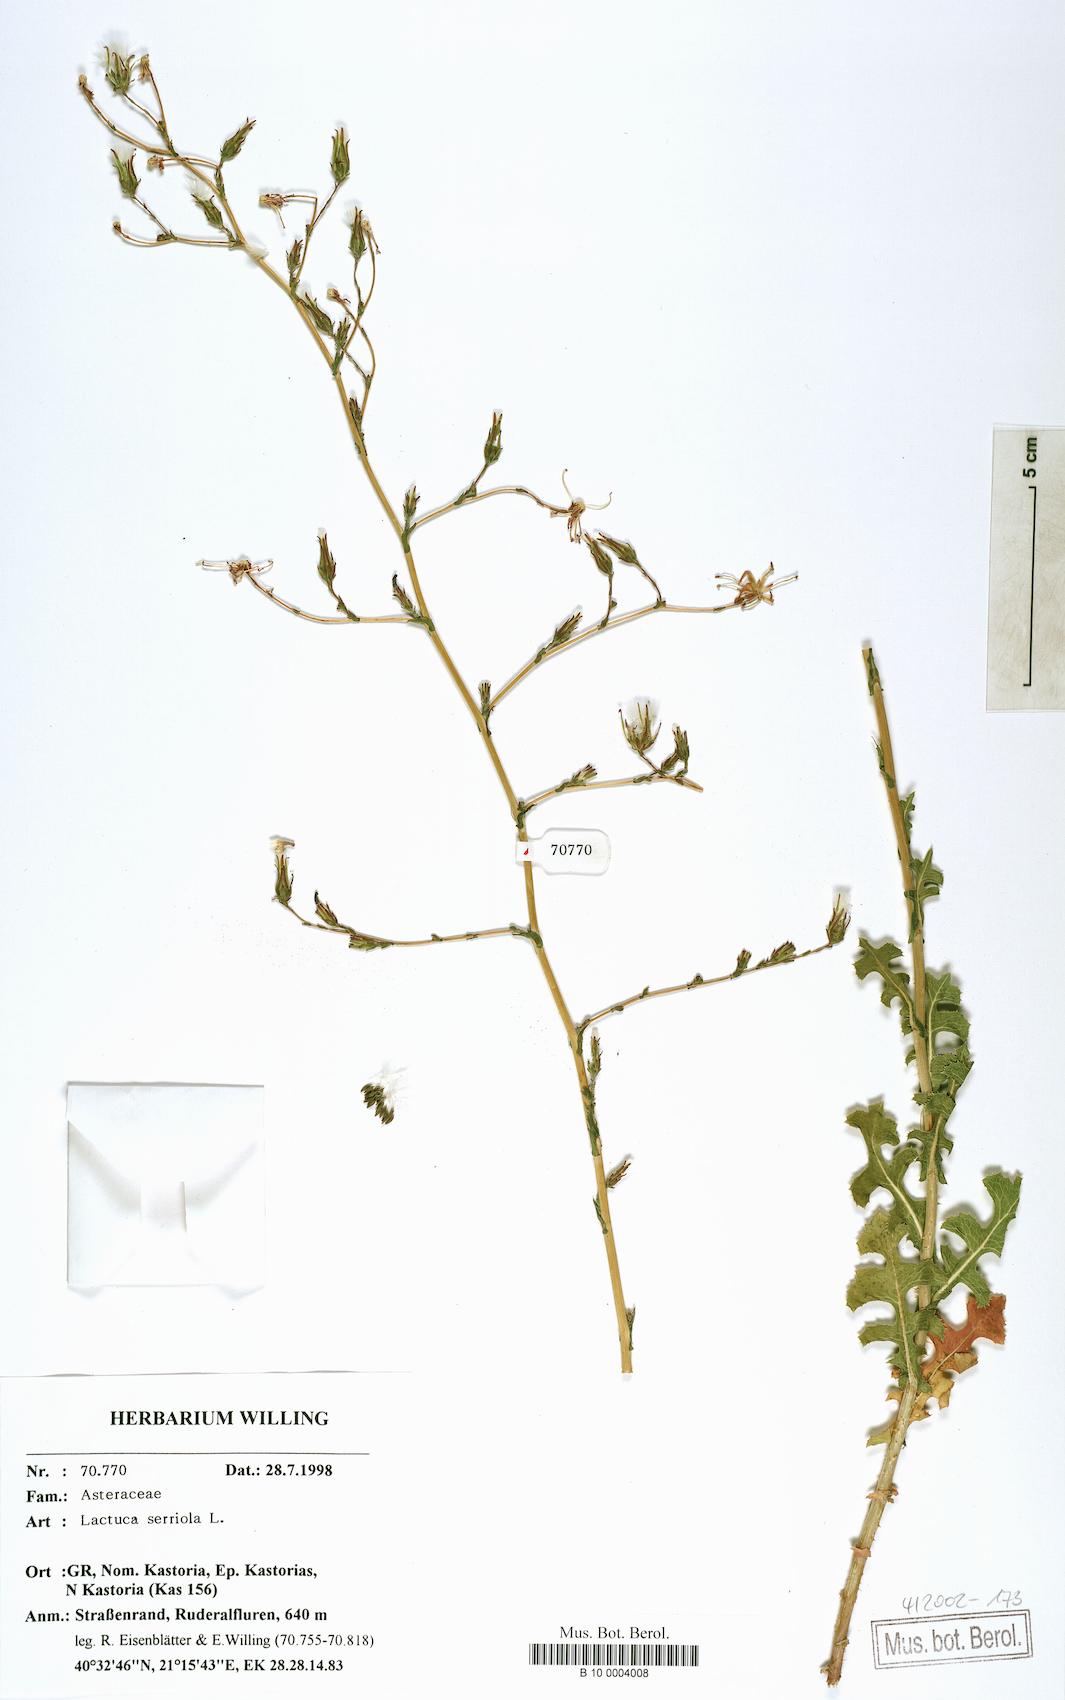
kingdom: Plantae
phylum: Tracheophyta
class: Magnoliopsida
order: Asterales
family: Asteraceae
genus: Lactuca
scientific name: Lactuca serriola
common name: Prickly lettuce
